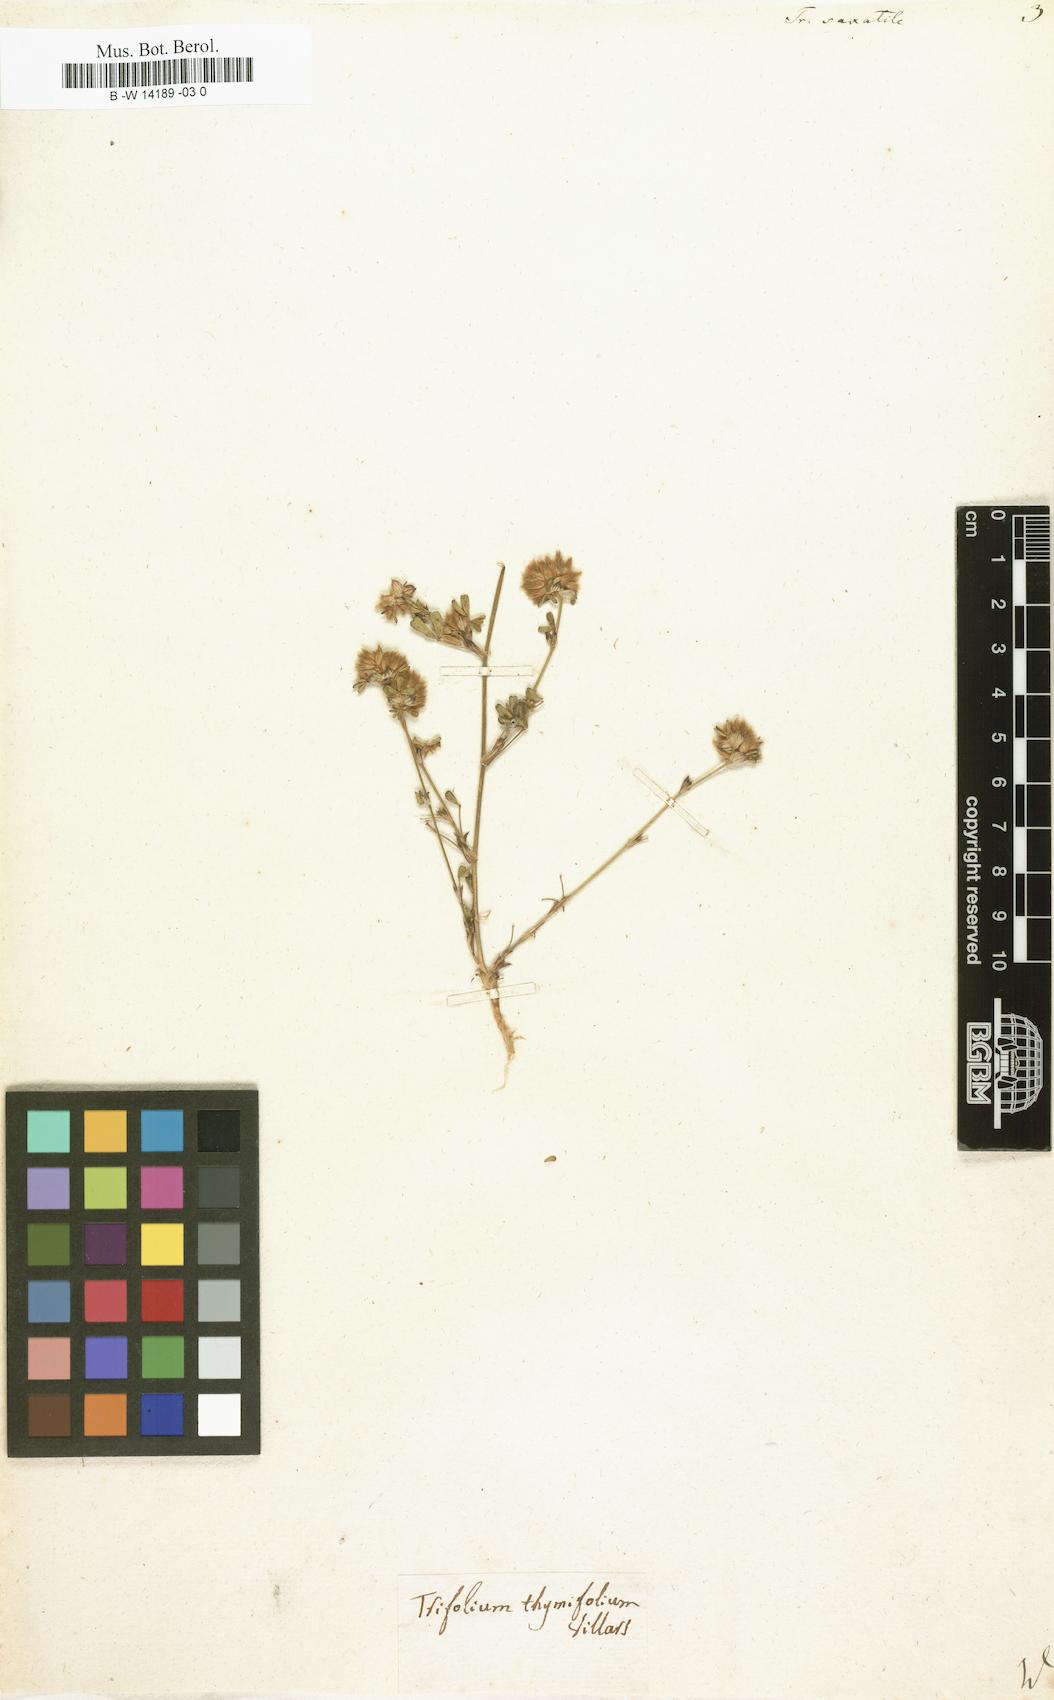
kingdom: Plantae
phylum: Tracheophyta
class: Magnoliopsida
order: Fabales
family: Fabaceae
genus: Trifolium
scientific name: Trifolium saxatile
